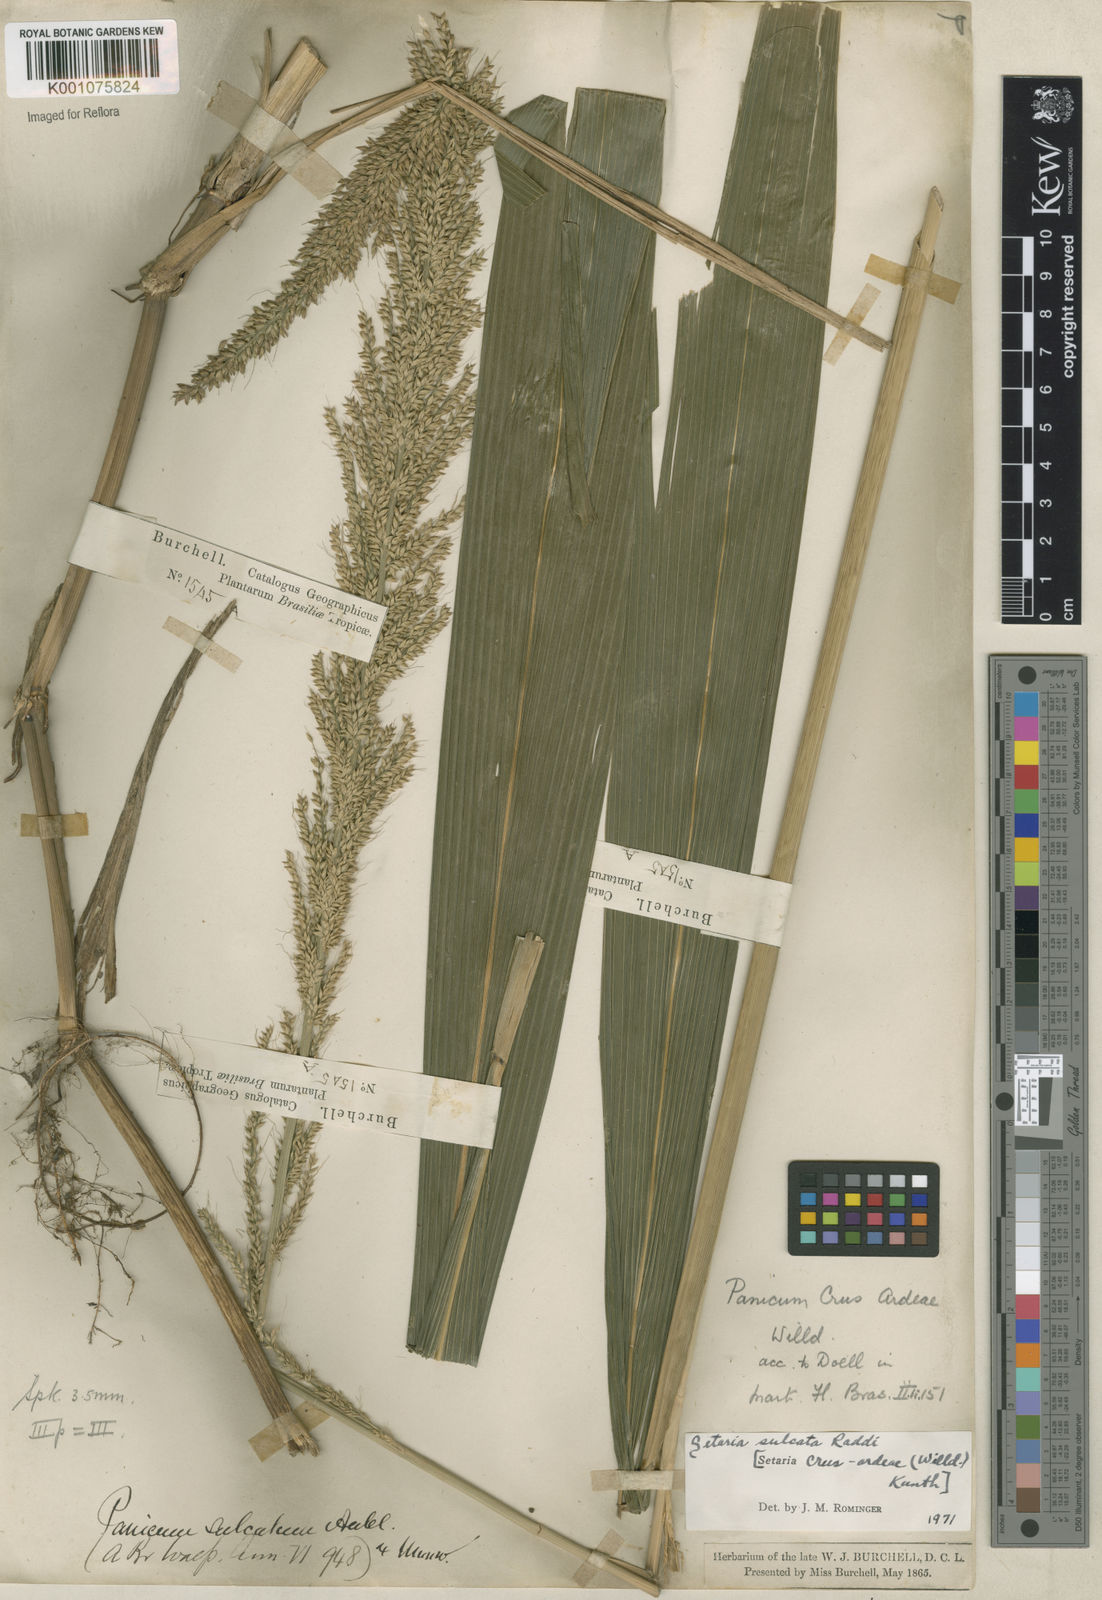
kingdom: Plantae
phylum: Tracheophyta
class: Liliopsida
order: Poales
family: Poaceae
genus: Setaria
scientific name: Setaria sulcata
